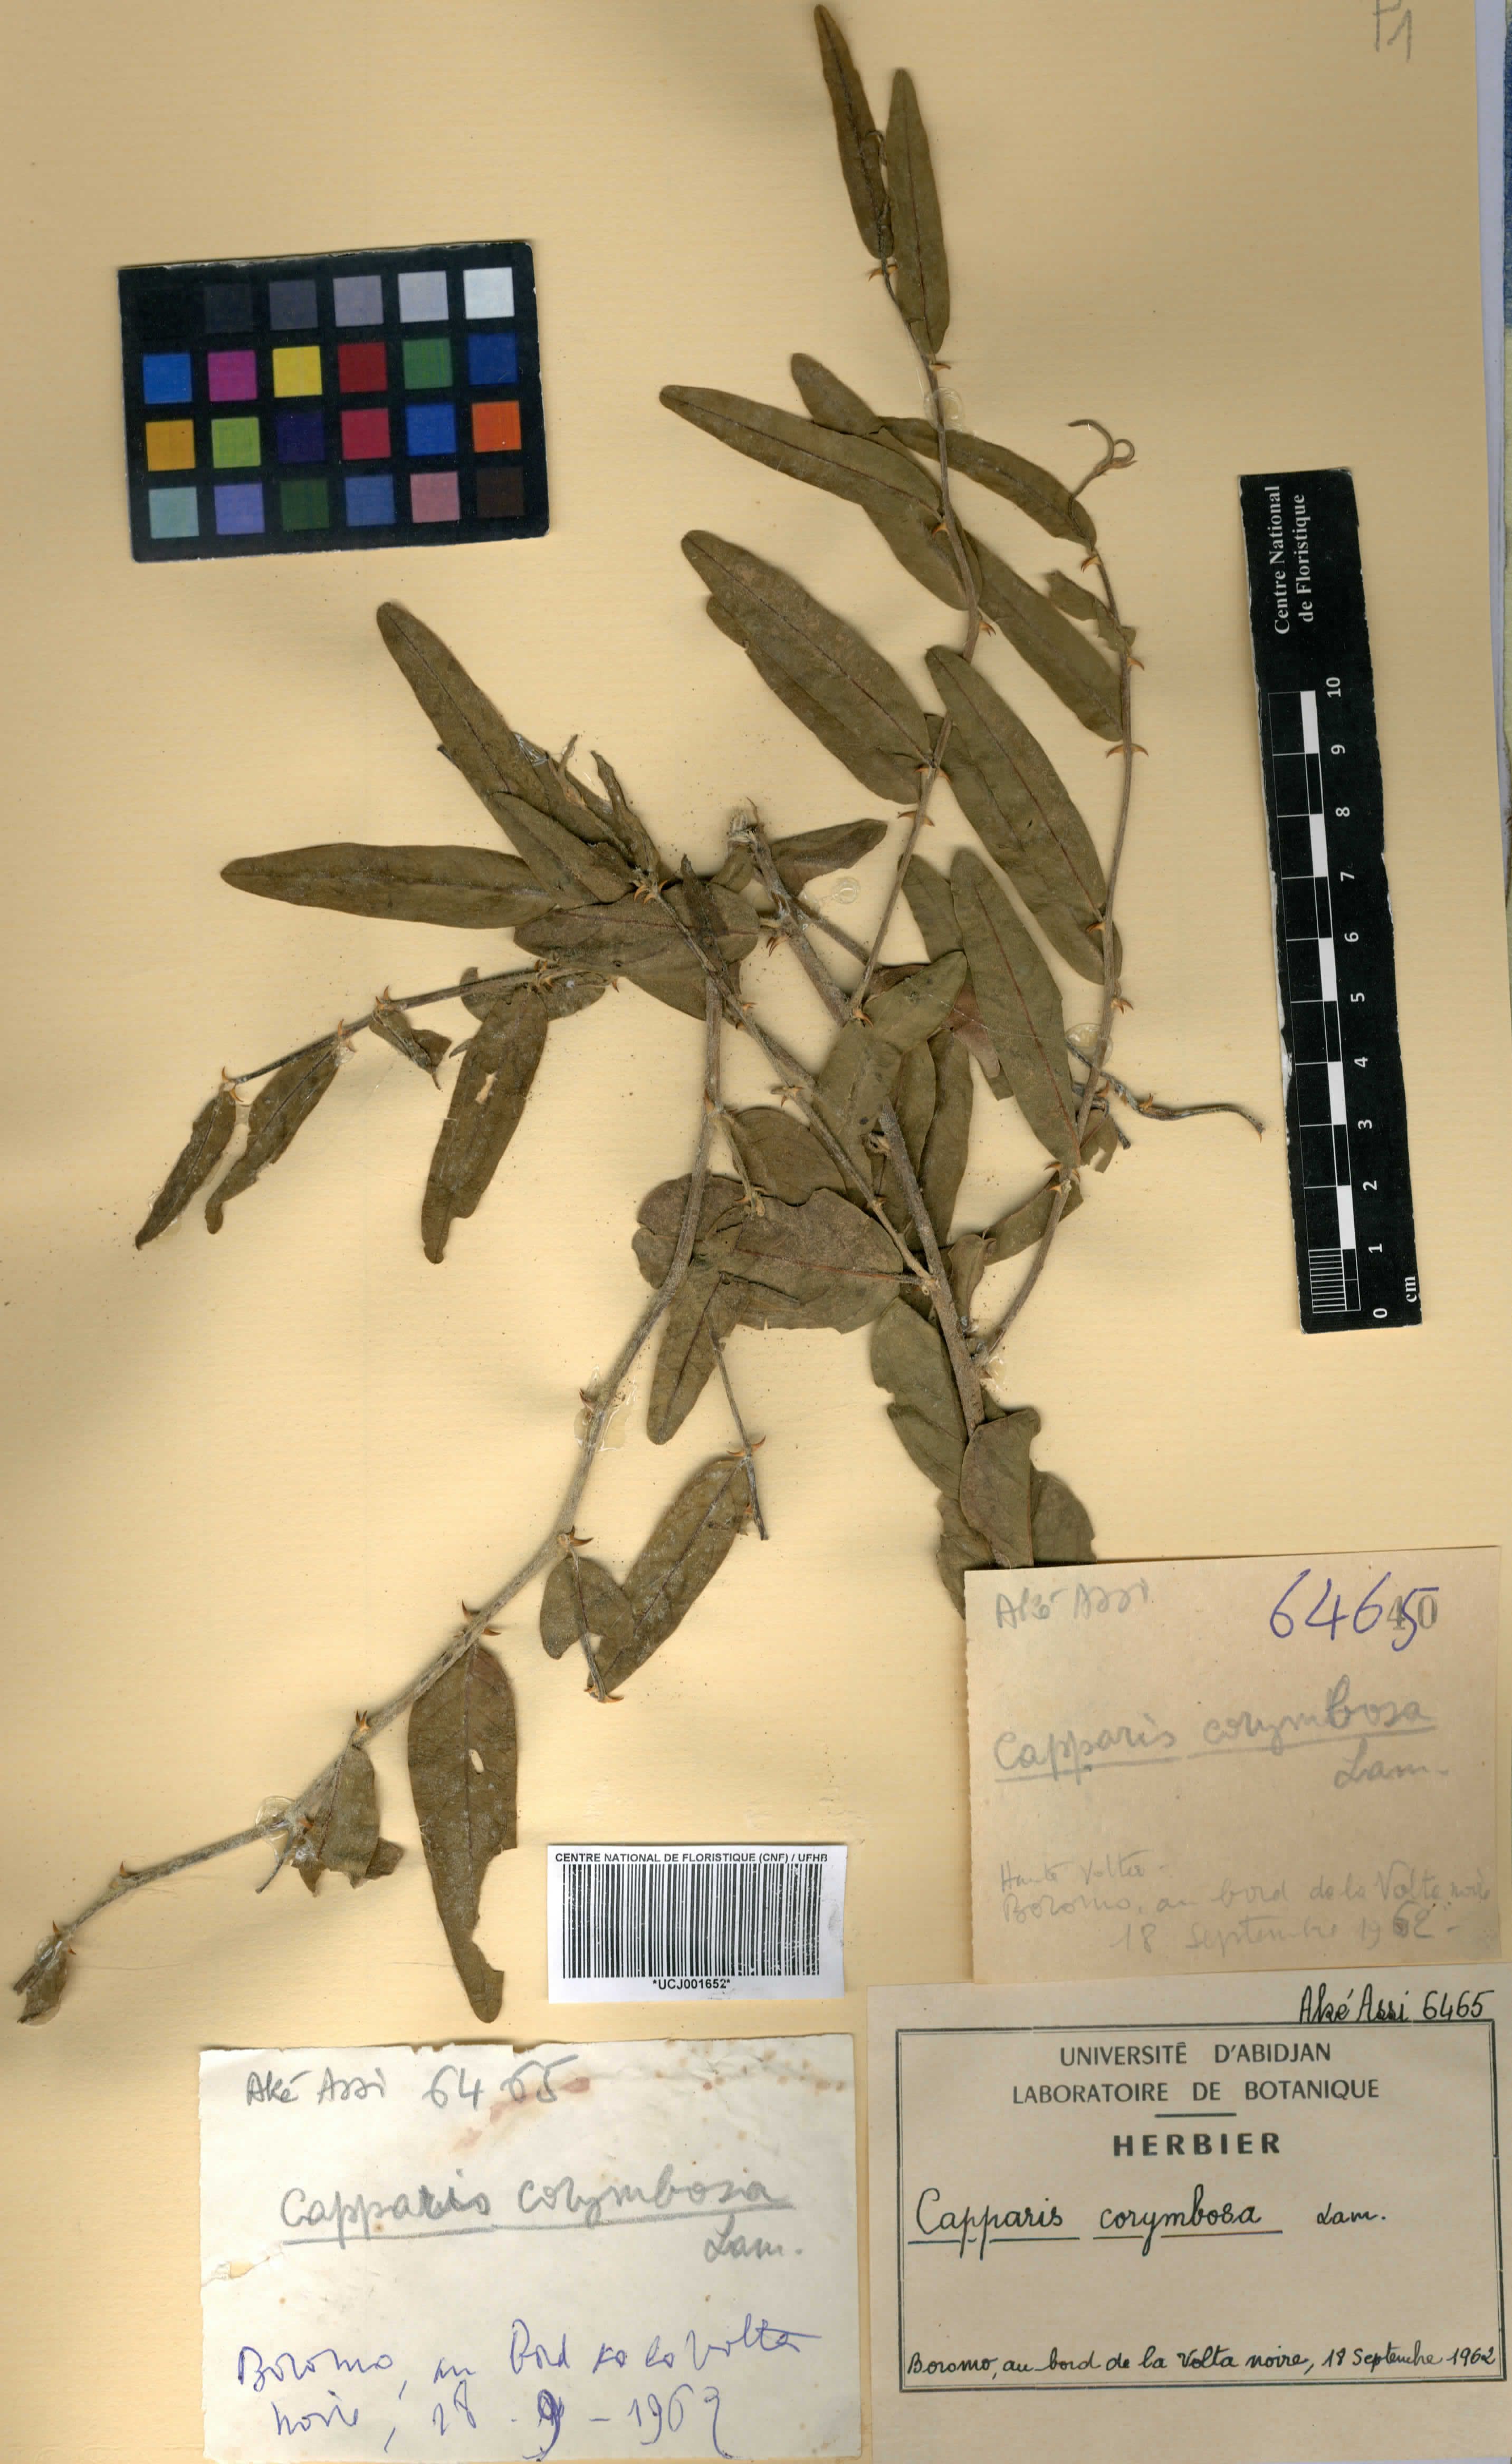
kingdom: Plantae
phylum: Tracheophyta
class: Magnoliopsida
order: Brassicales
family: Capparaceae
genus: Capparis
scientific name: Capparis corymbosa
